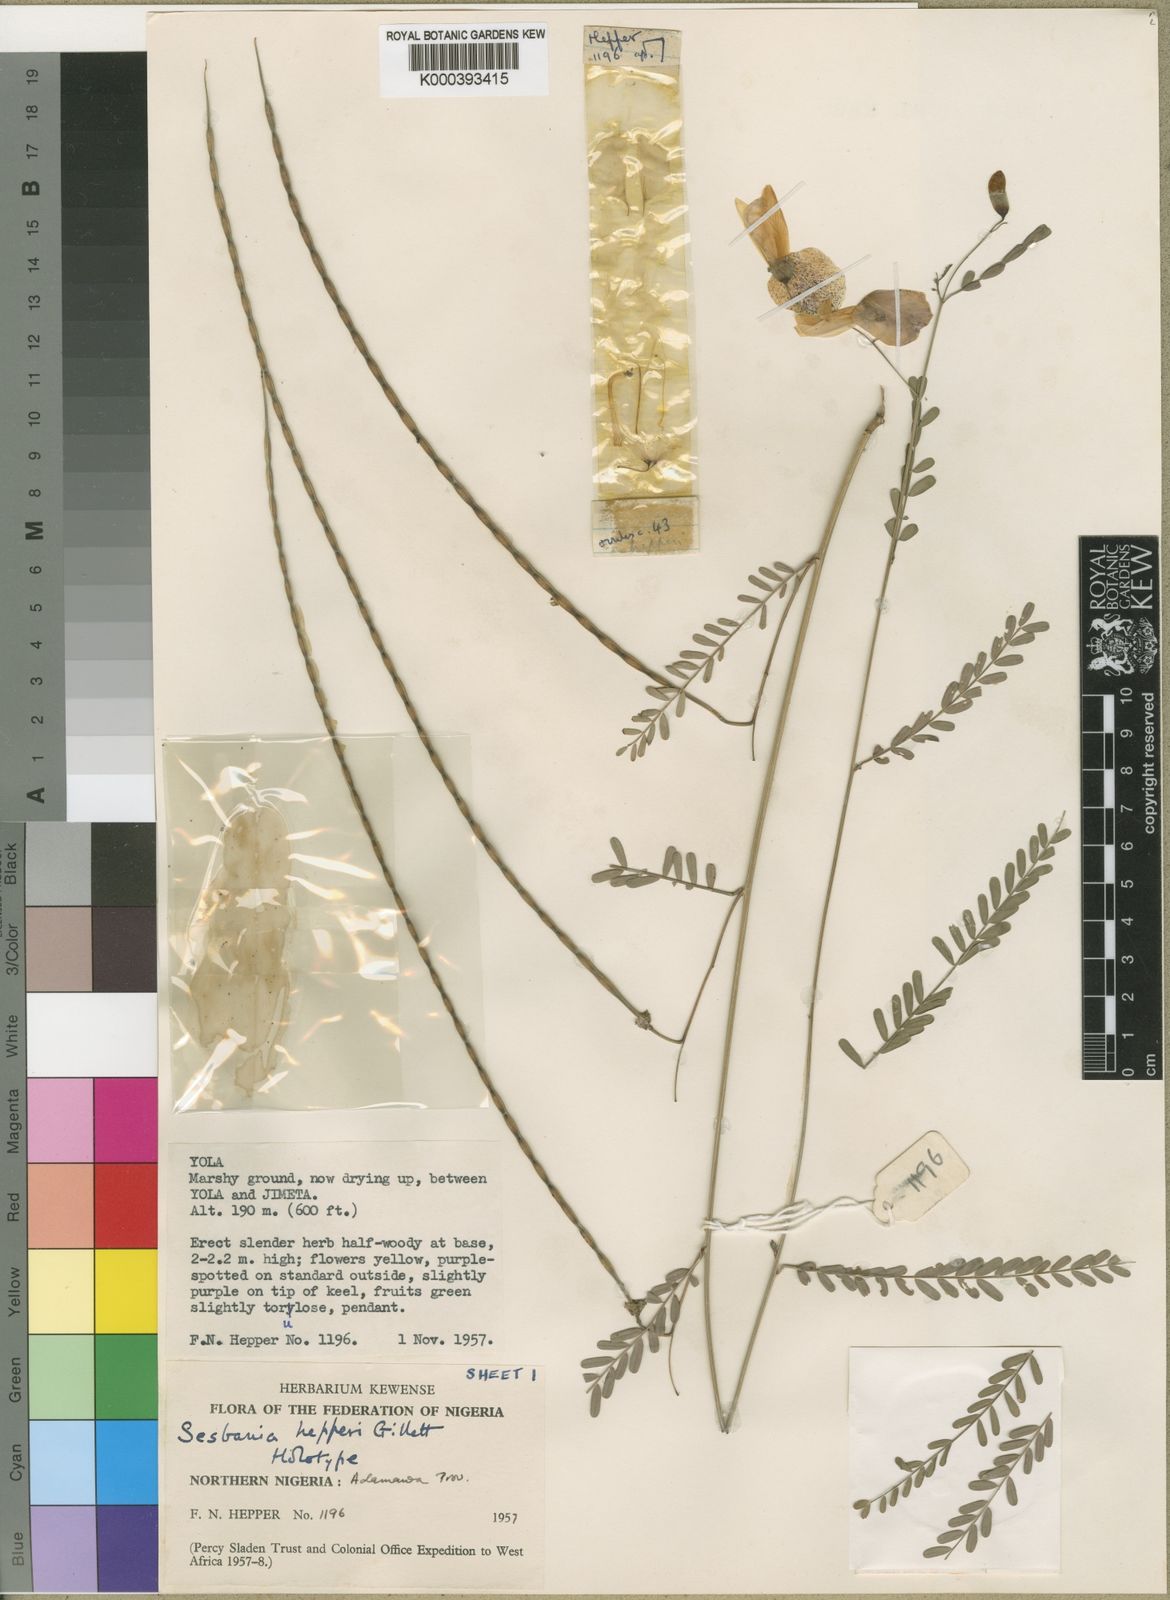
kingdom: Plantae
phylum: Tracheophyta
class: Magnoliopsida
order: Fabales
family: Fabaceae
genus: Sesbania
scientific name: Sesbania hepperi
